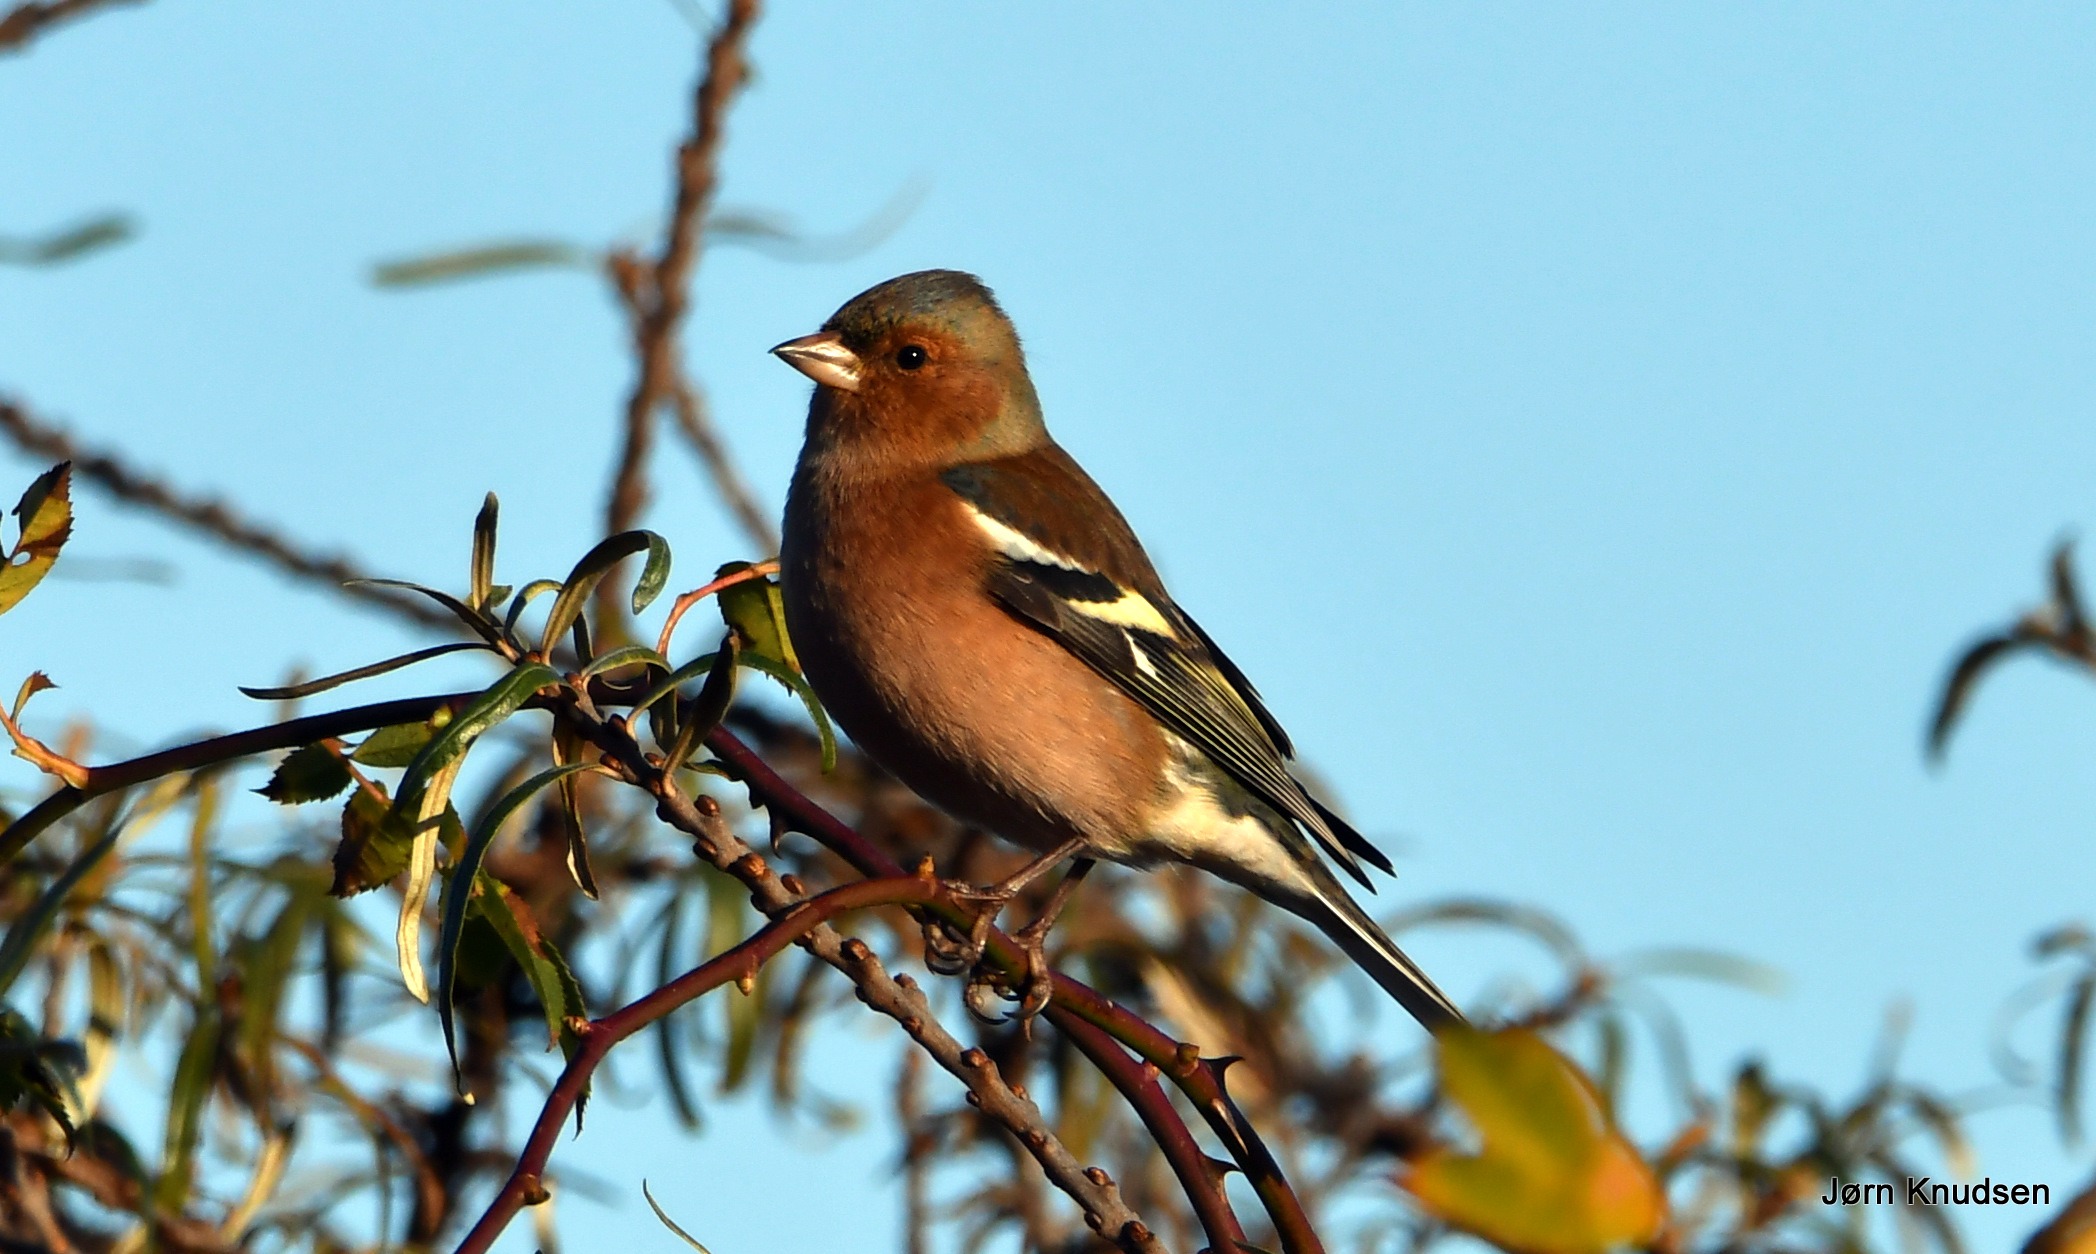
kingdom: Animalia
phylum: Chordata
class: Aves
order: Passeriformes
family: Fringillidae
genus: Fringilla
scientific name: Fringilla coelebs
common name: Bogfinke
